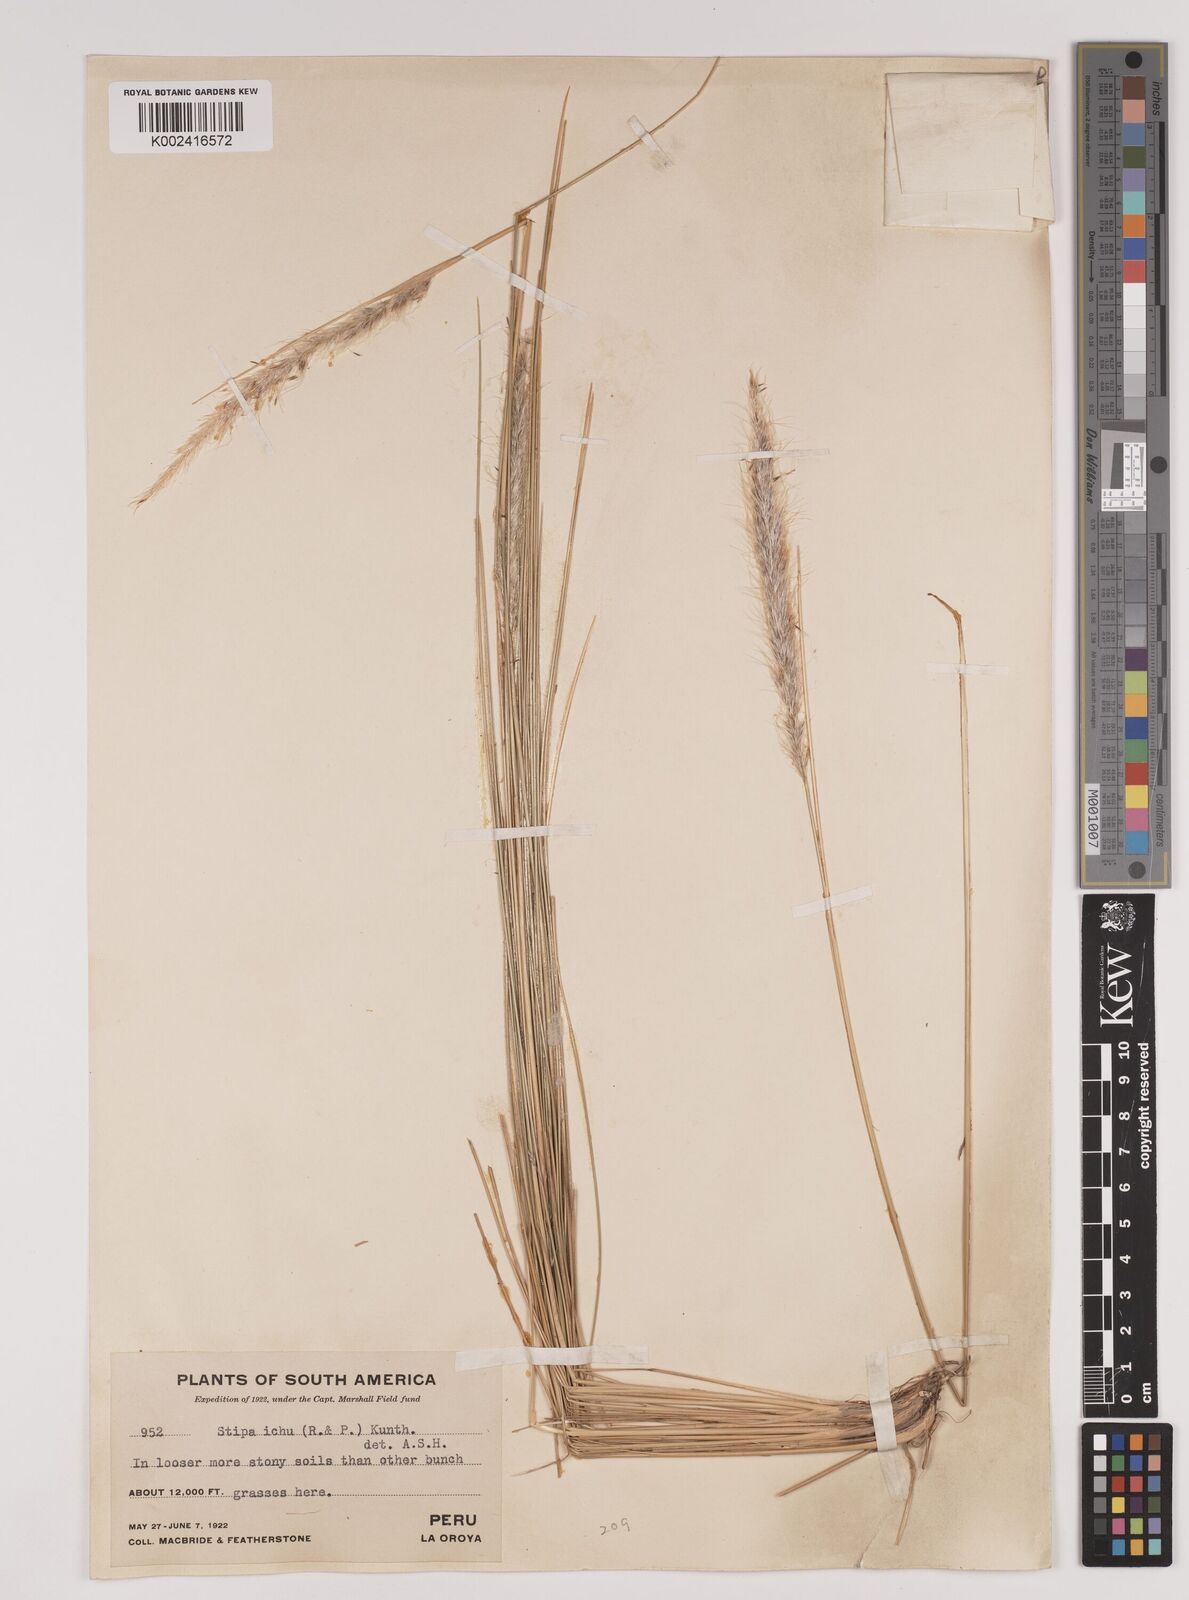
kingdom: Plantae
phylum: Tracheophyta
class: Liliopsida
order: Poales
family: Poaceae
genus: Jarava
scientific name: Jarava leptostachya
